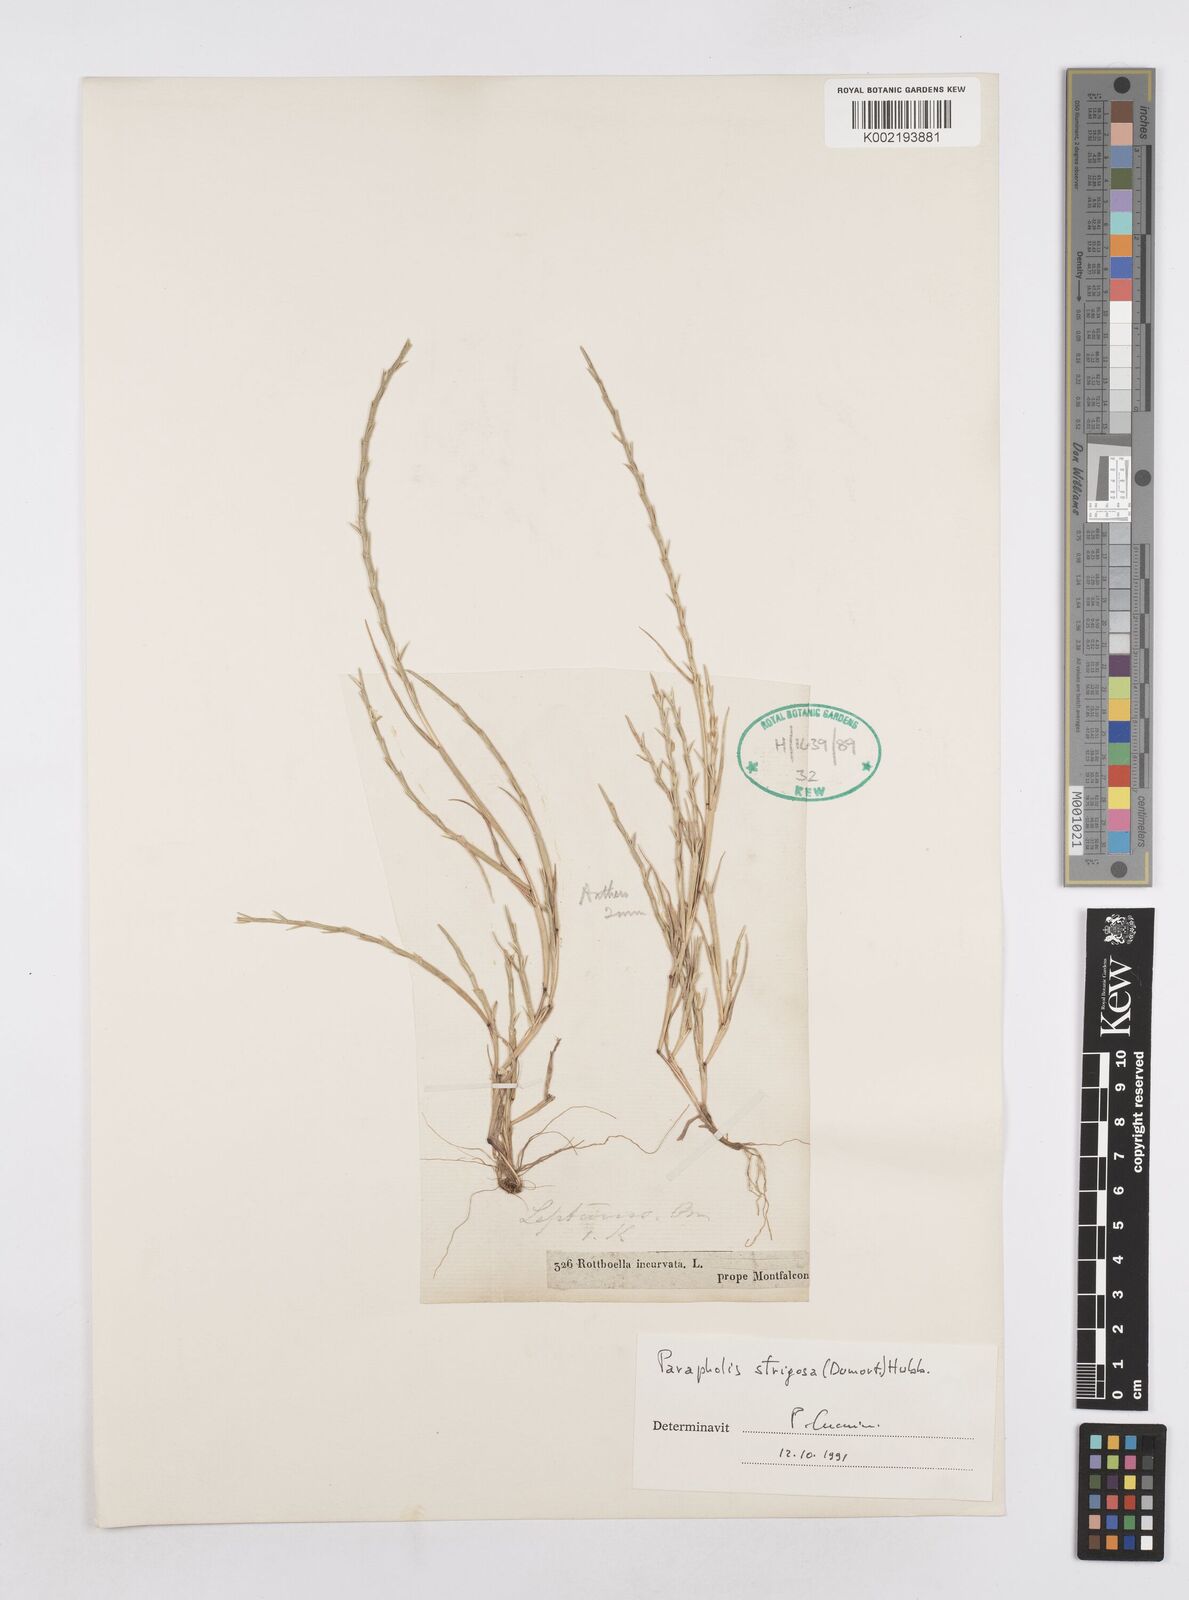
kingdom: Plantae
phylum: Tracheophyta
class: Liliopsida
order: Poales
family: Poaceae
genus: Parapholis
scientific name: Parapholis strigosa
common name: Hard-grass
